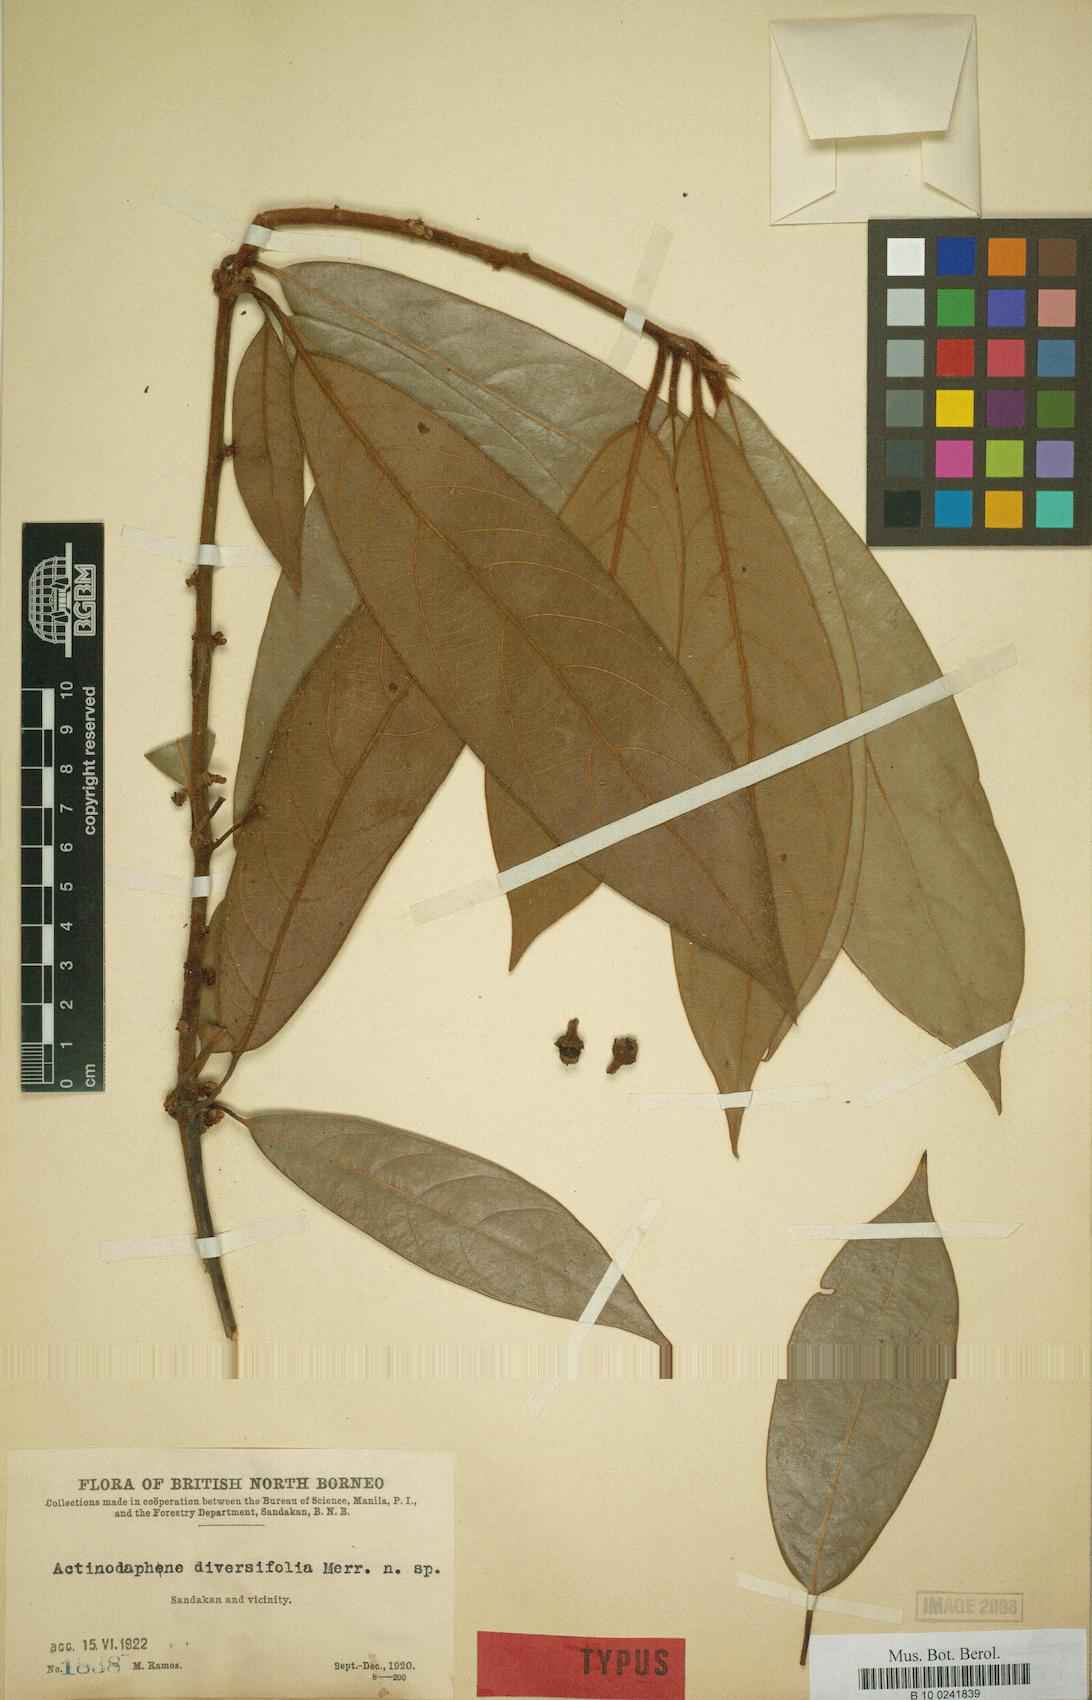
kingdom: Plantae
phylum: Tracheophyta
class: Magnoliopsida
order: Laurales
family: Lauraceae
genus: Litsea
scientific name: Litsea densiflora
